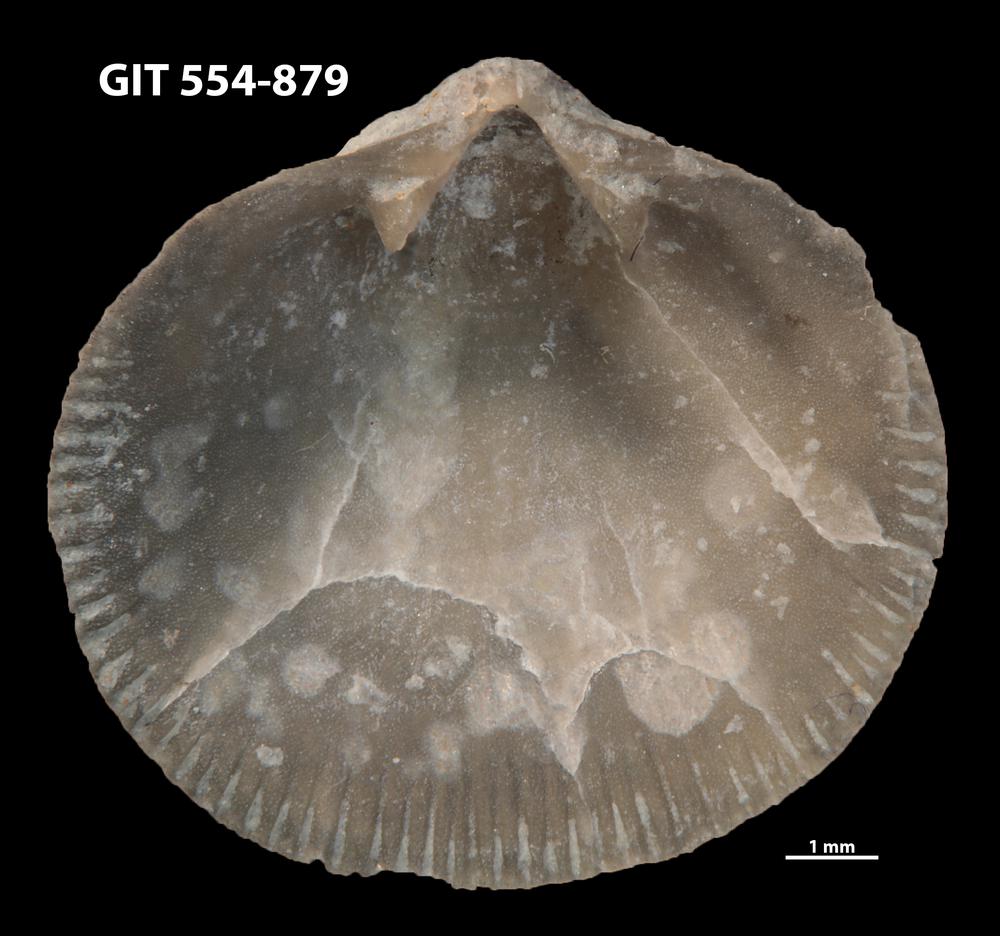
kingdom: Animalia
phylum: Brachiopoda
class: Rhynchonellata
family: Rhipidomellidae
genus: Mendacella
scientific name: Mendacella Orthis hybrida
